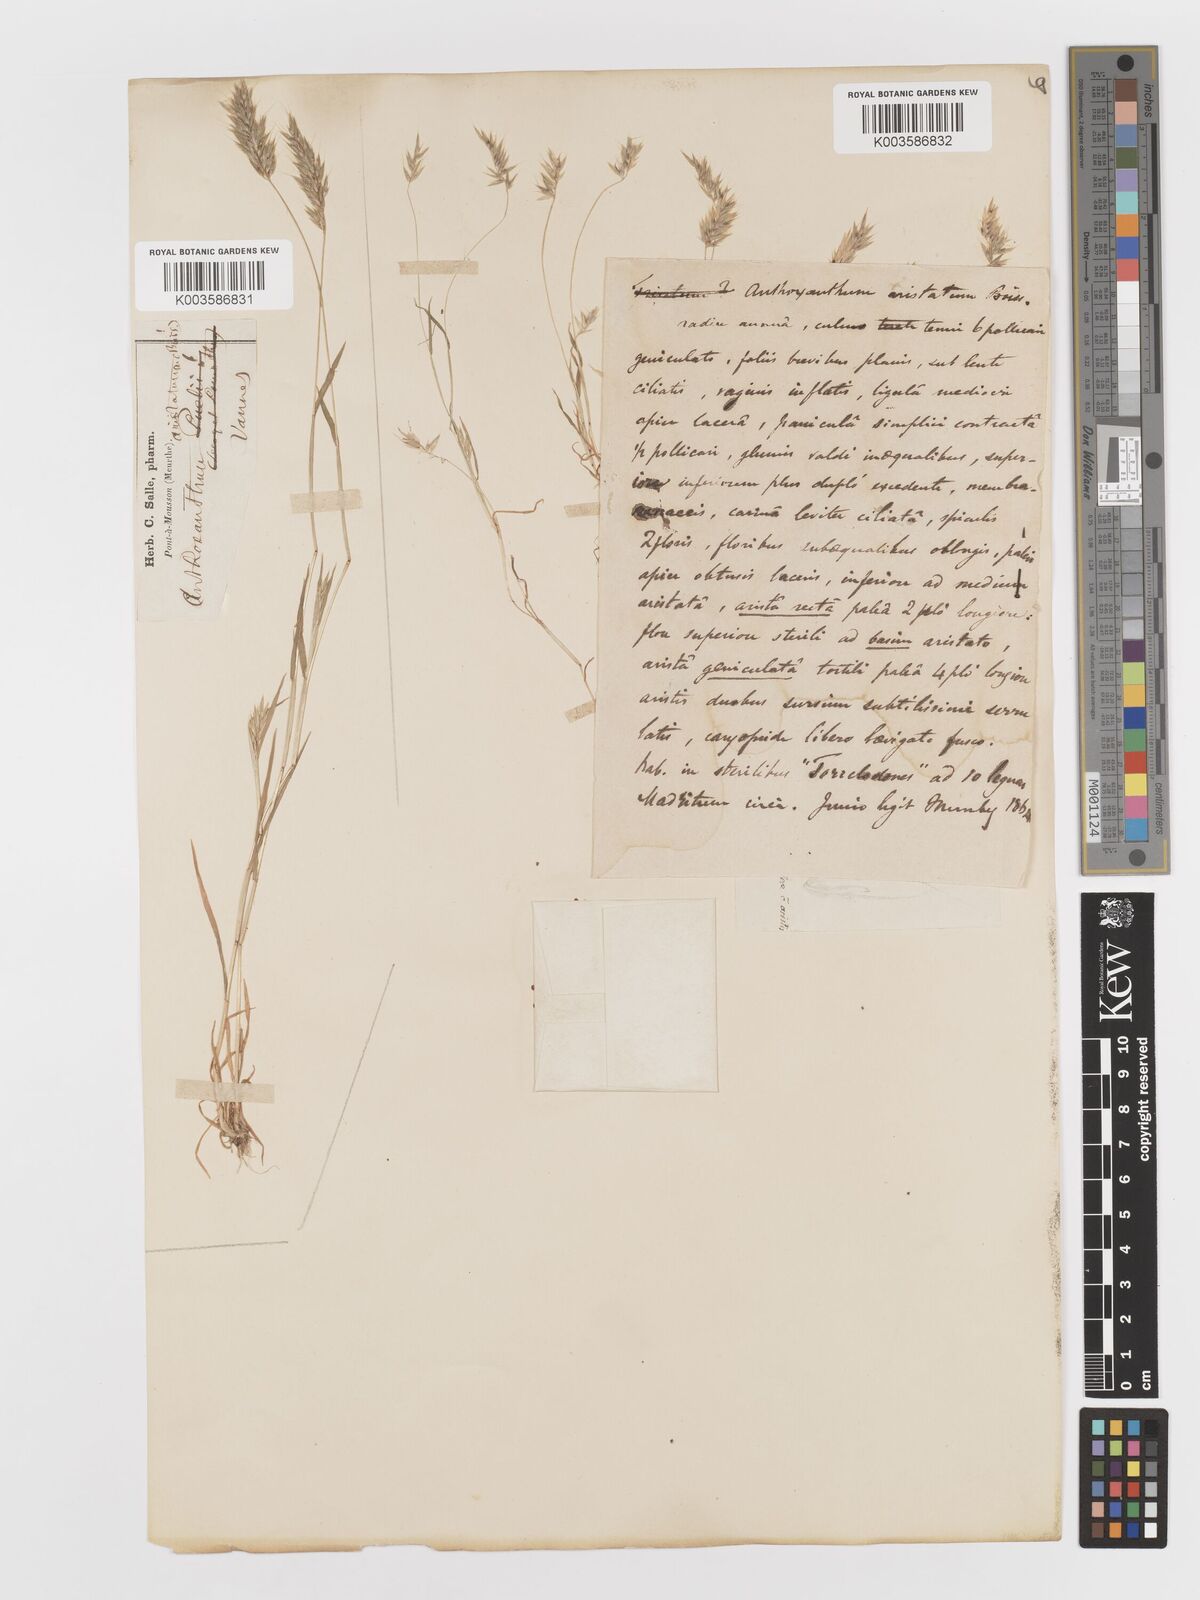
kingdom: Plantae
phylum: Tracheophyta
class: Liliopsida
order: Poales
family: Poaceae
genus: Anthoxanthum
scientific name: Anthoxanthum
